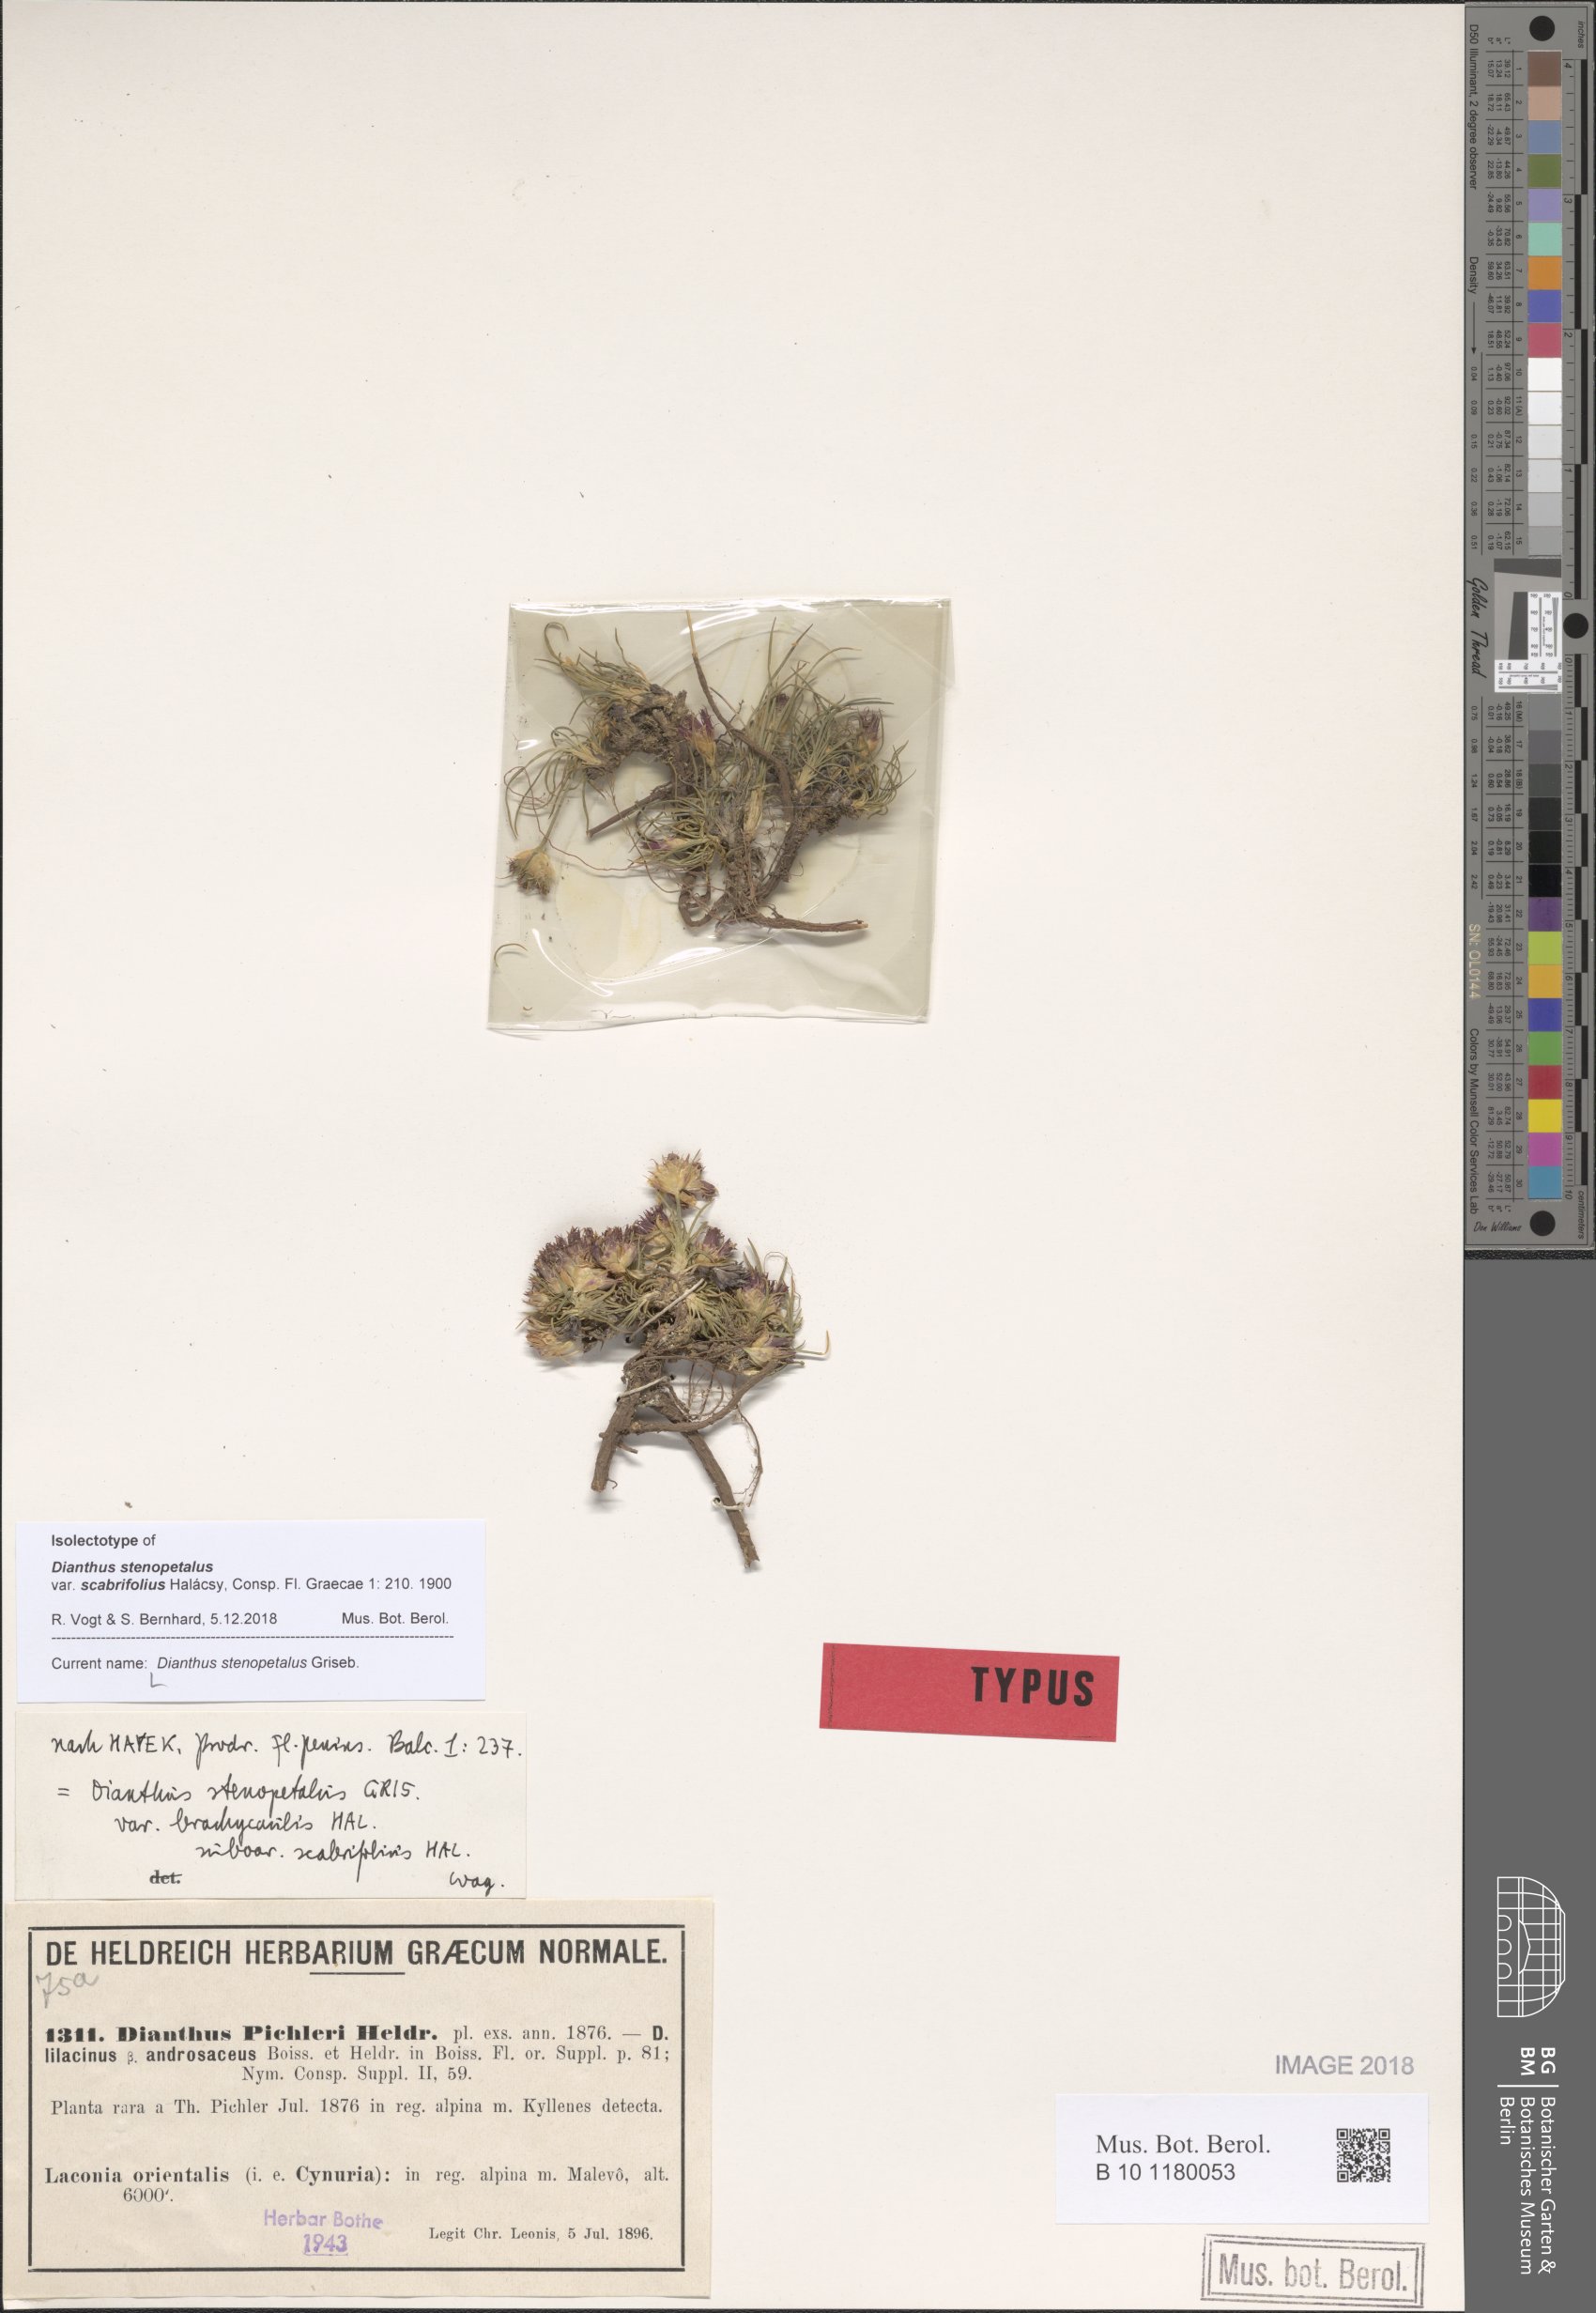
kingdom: Plantae
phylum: Tracheophyta
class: Magnoliopsida
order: Caryophyllales
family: Caryophyllaceae
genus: Dianthus
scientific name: Dianthus stenopetalus
